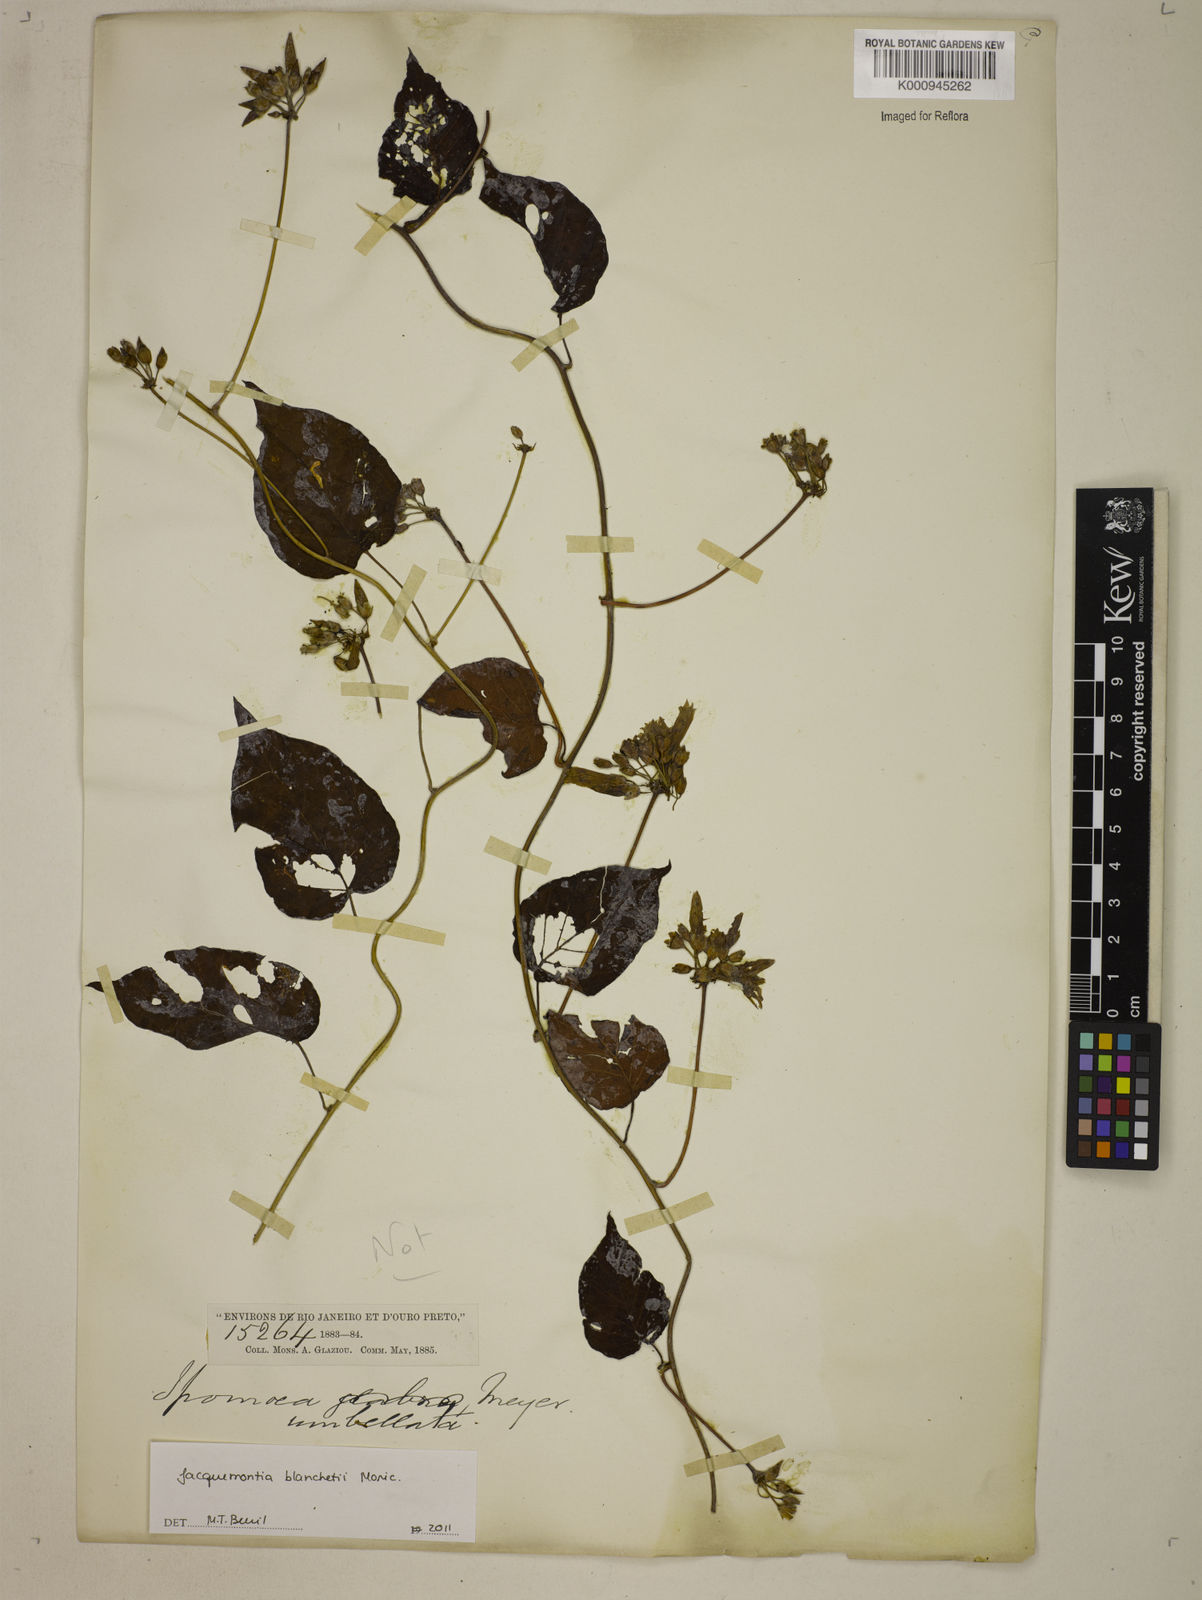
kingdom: Plantae
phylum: Tracheophyta
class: Magnoliopsida
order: Solanales
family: Convolvulaceae
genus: Jacquemontia
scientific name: Jacquemontia blanchetii
